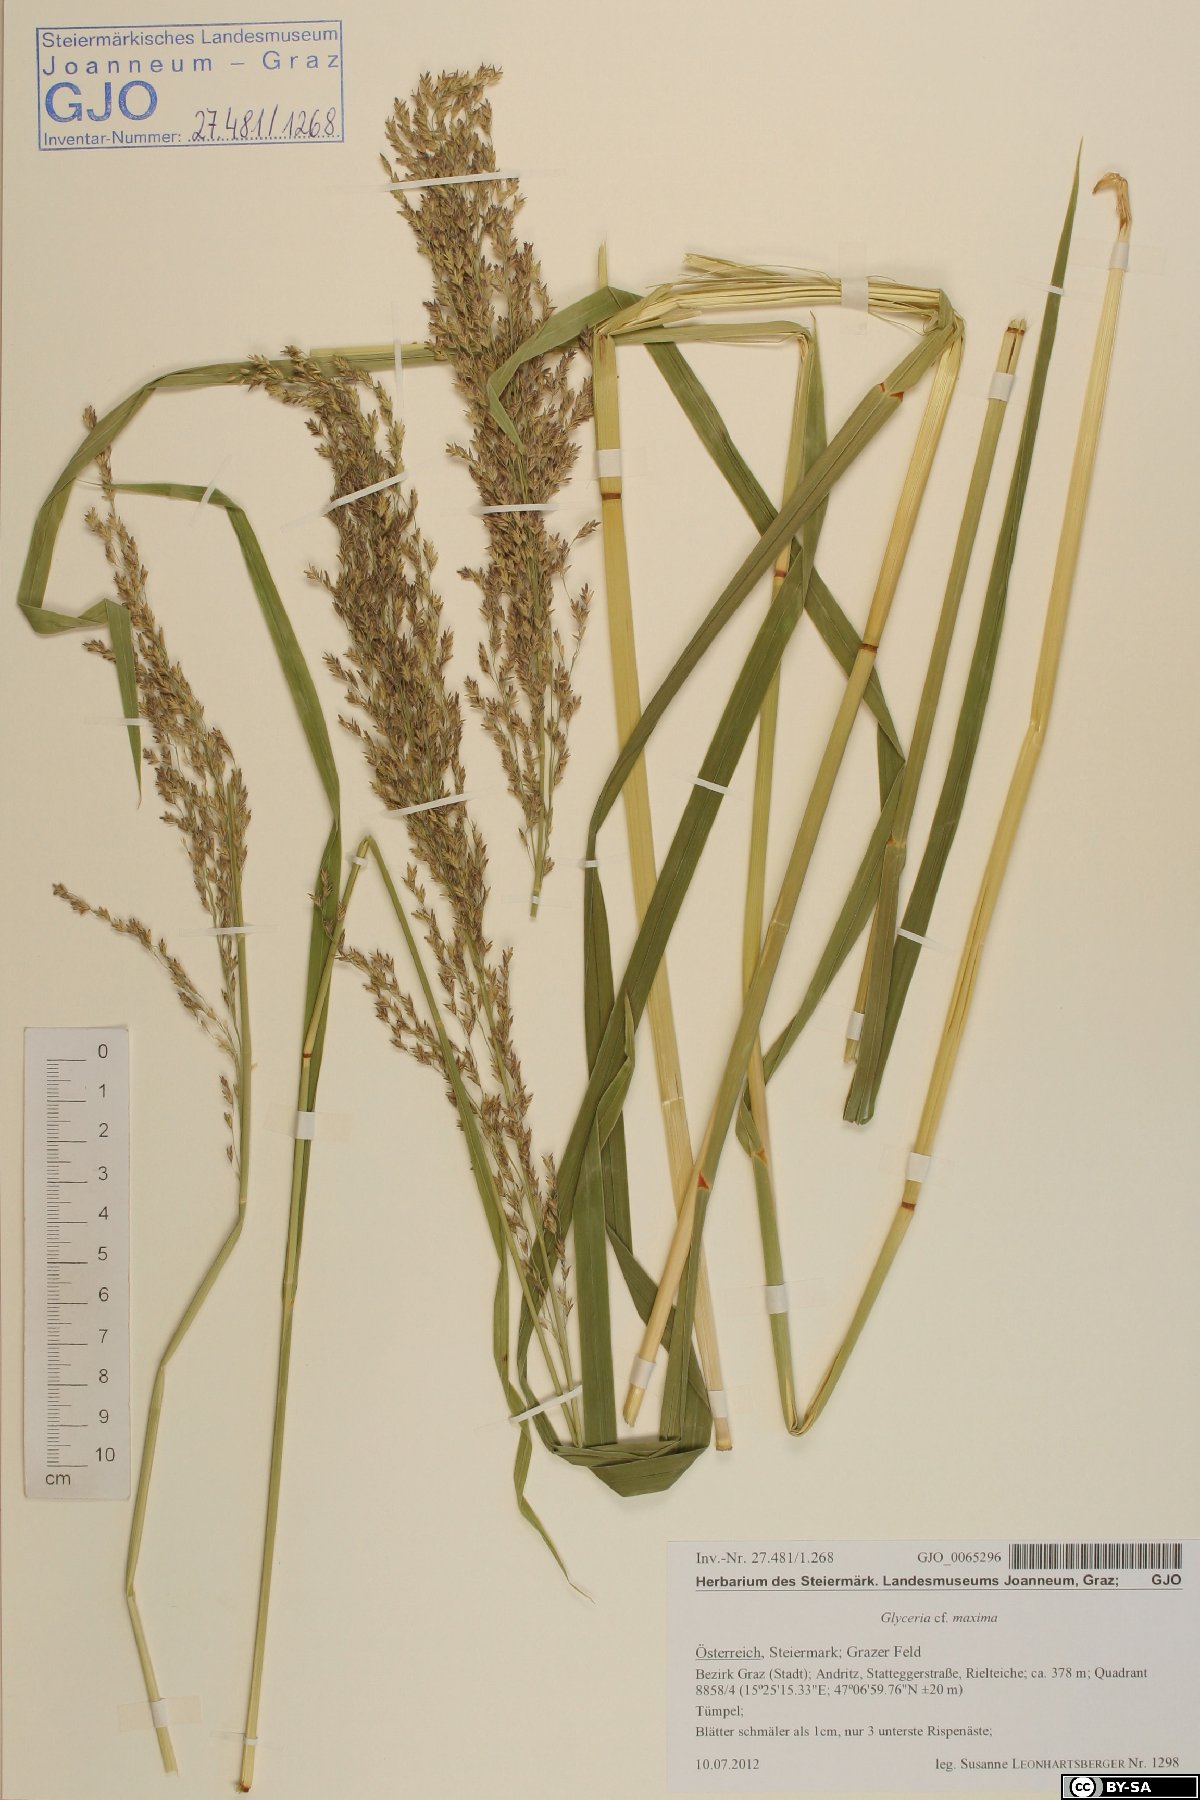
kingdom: Plantae
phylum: Tracheophyta
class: Liliopsida
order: Poales
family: Poaceae
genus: Glyceria
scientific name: Glyceria maxima
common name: Reed mannagrass
